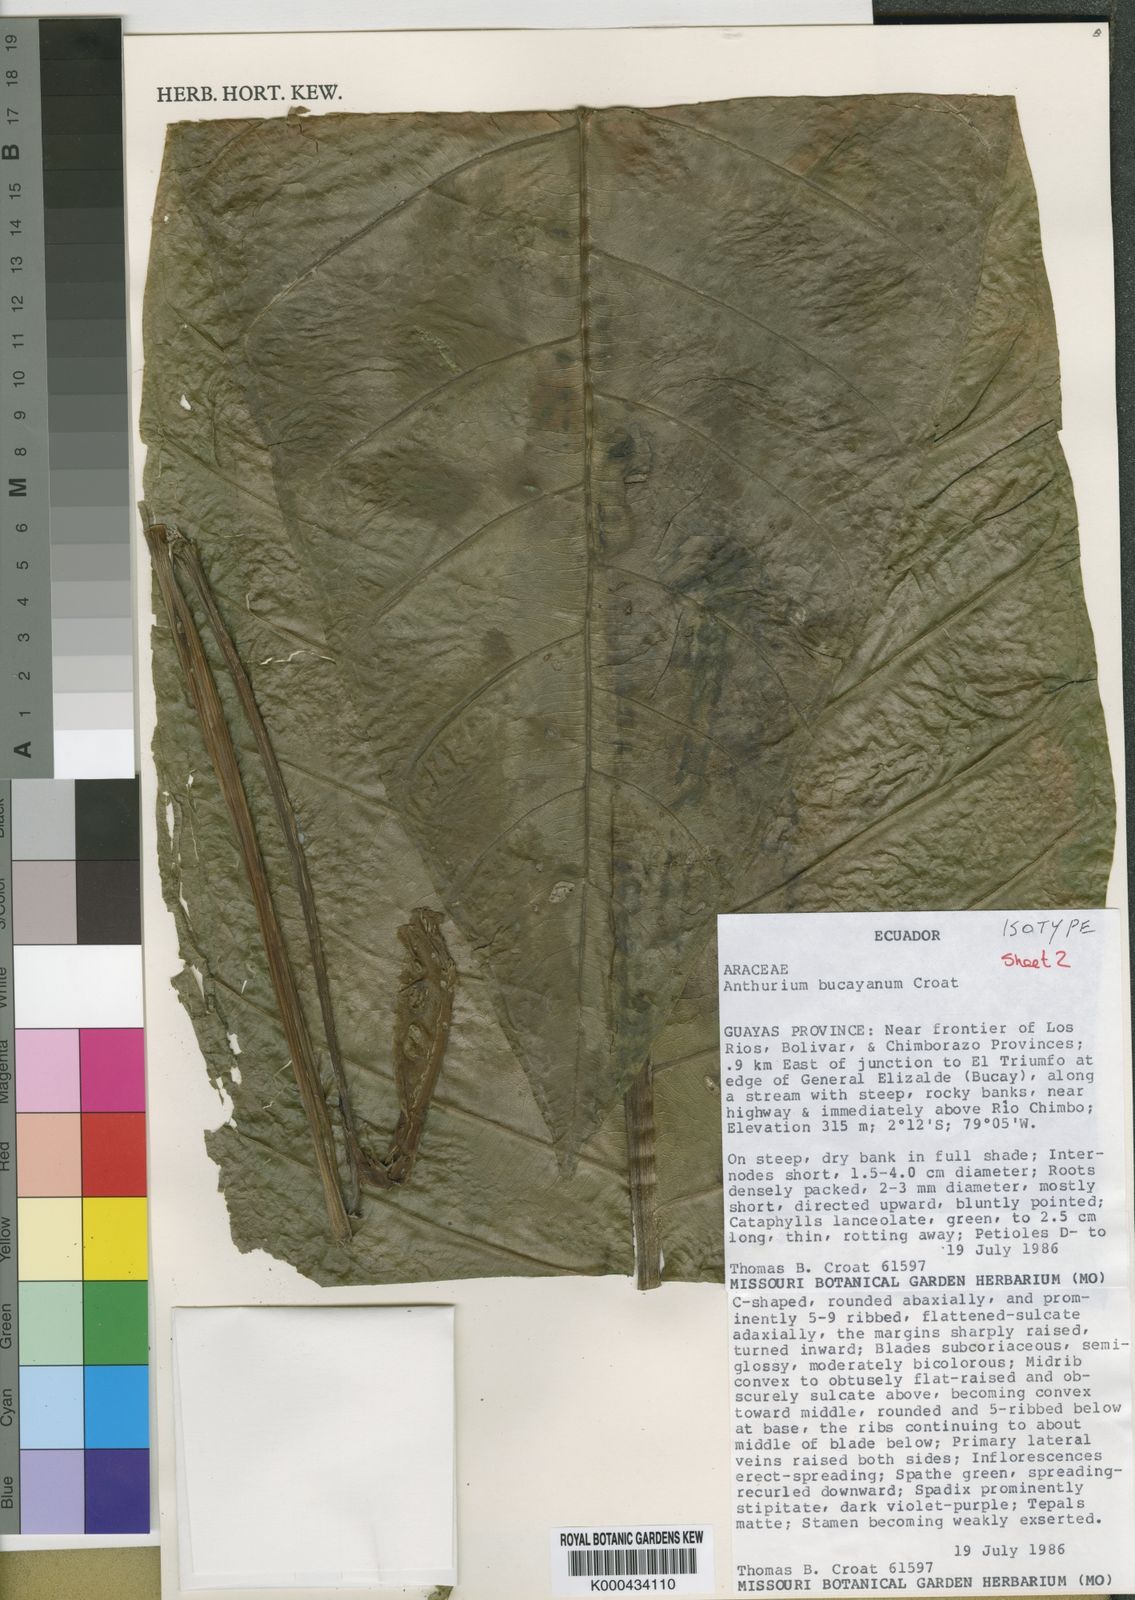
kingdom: Plantae
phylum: Tracheophyta
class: Liliopsida
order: Alismatales
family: Araceae
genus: Anthurium
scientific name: Anthurium bucayanum
